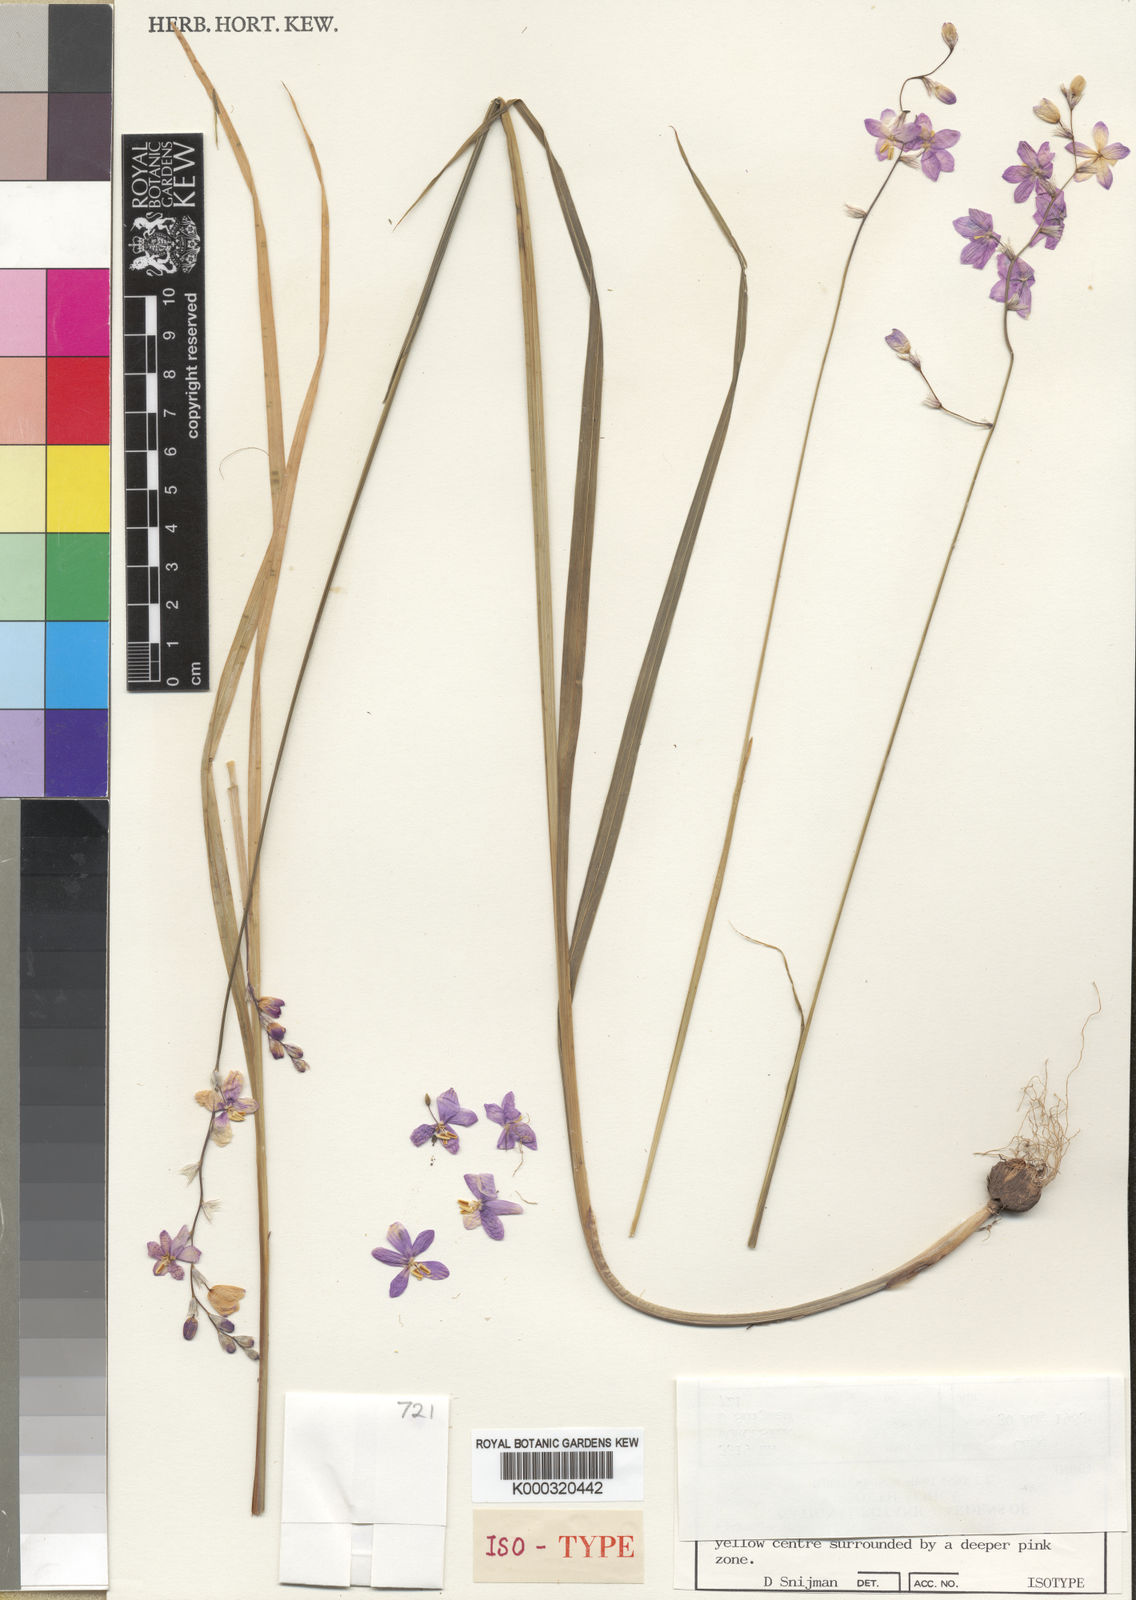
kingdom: Plantae
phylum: Tracheophyta
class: Liliopsida
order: Asparagales
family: Iridaceae
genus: Ixia
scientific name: Ixia collina
